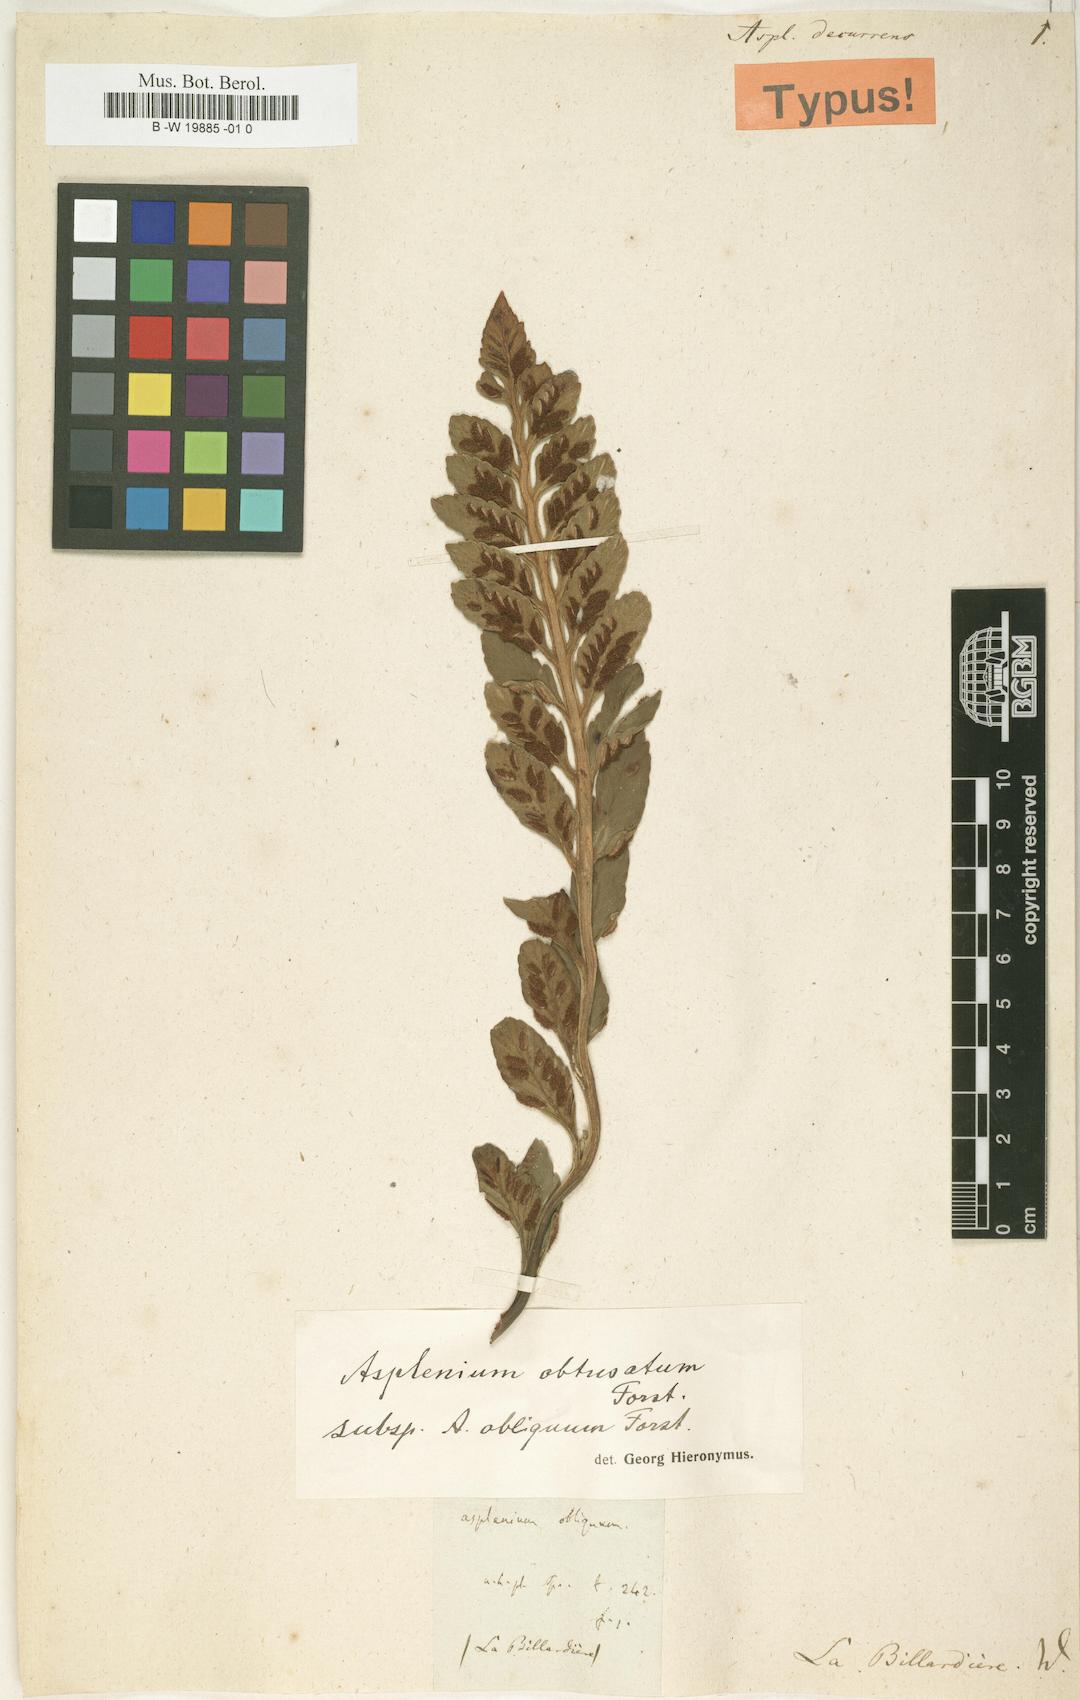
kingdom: Plantae
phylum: Tracheophyta
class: Polypodiopsida
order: Polypodiales
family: Aspleniaceae
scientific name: Aspleniaceae
